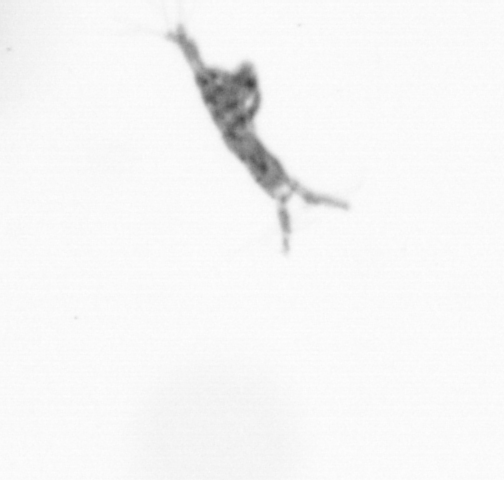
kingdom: Animalia
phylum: Arthropoda
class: Copepoda
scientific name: Copepoda
